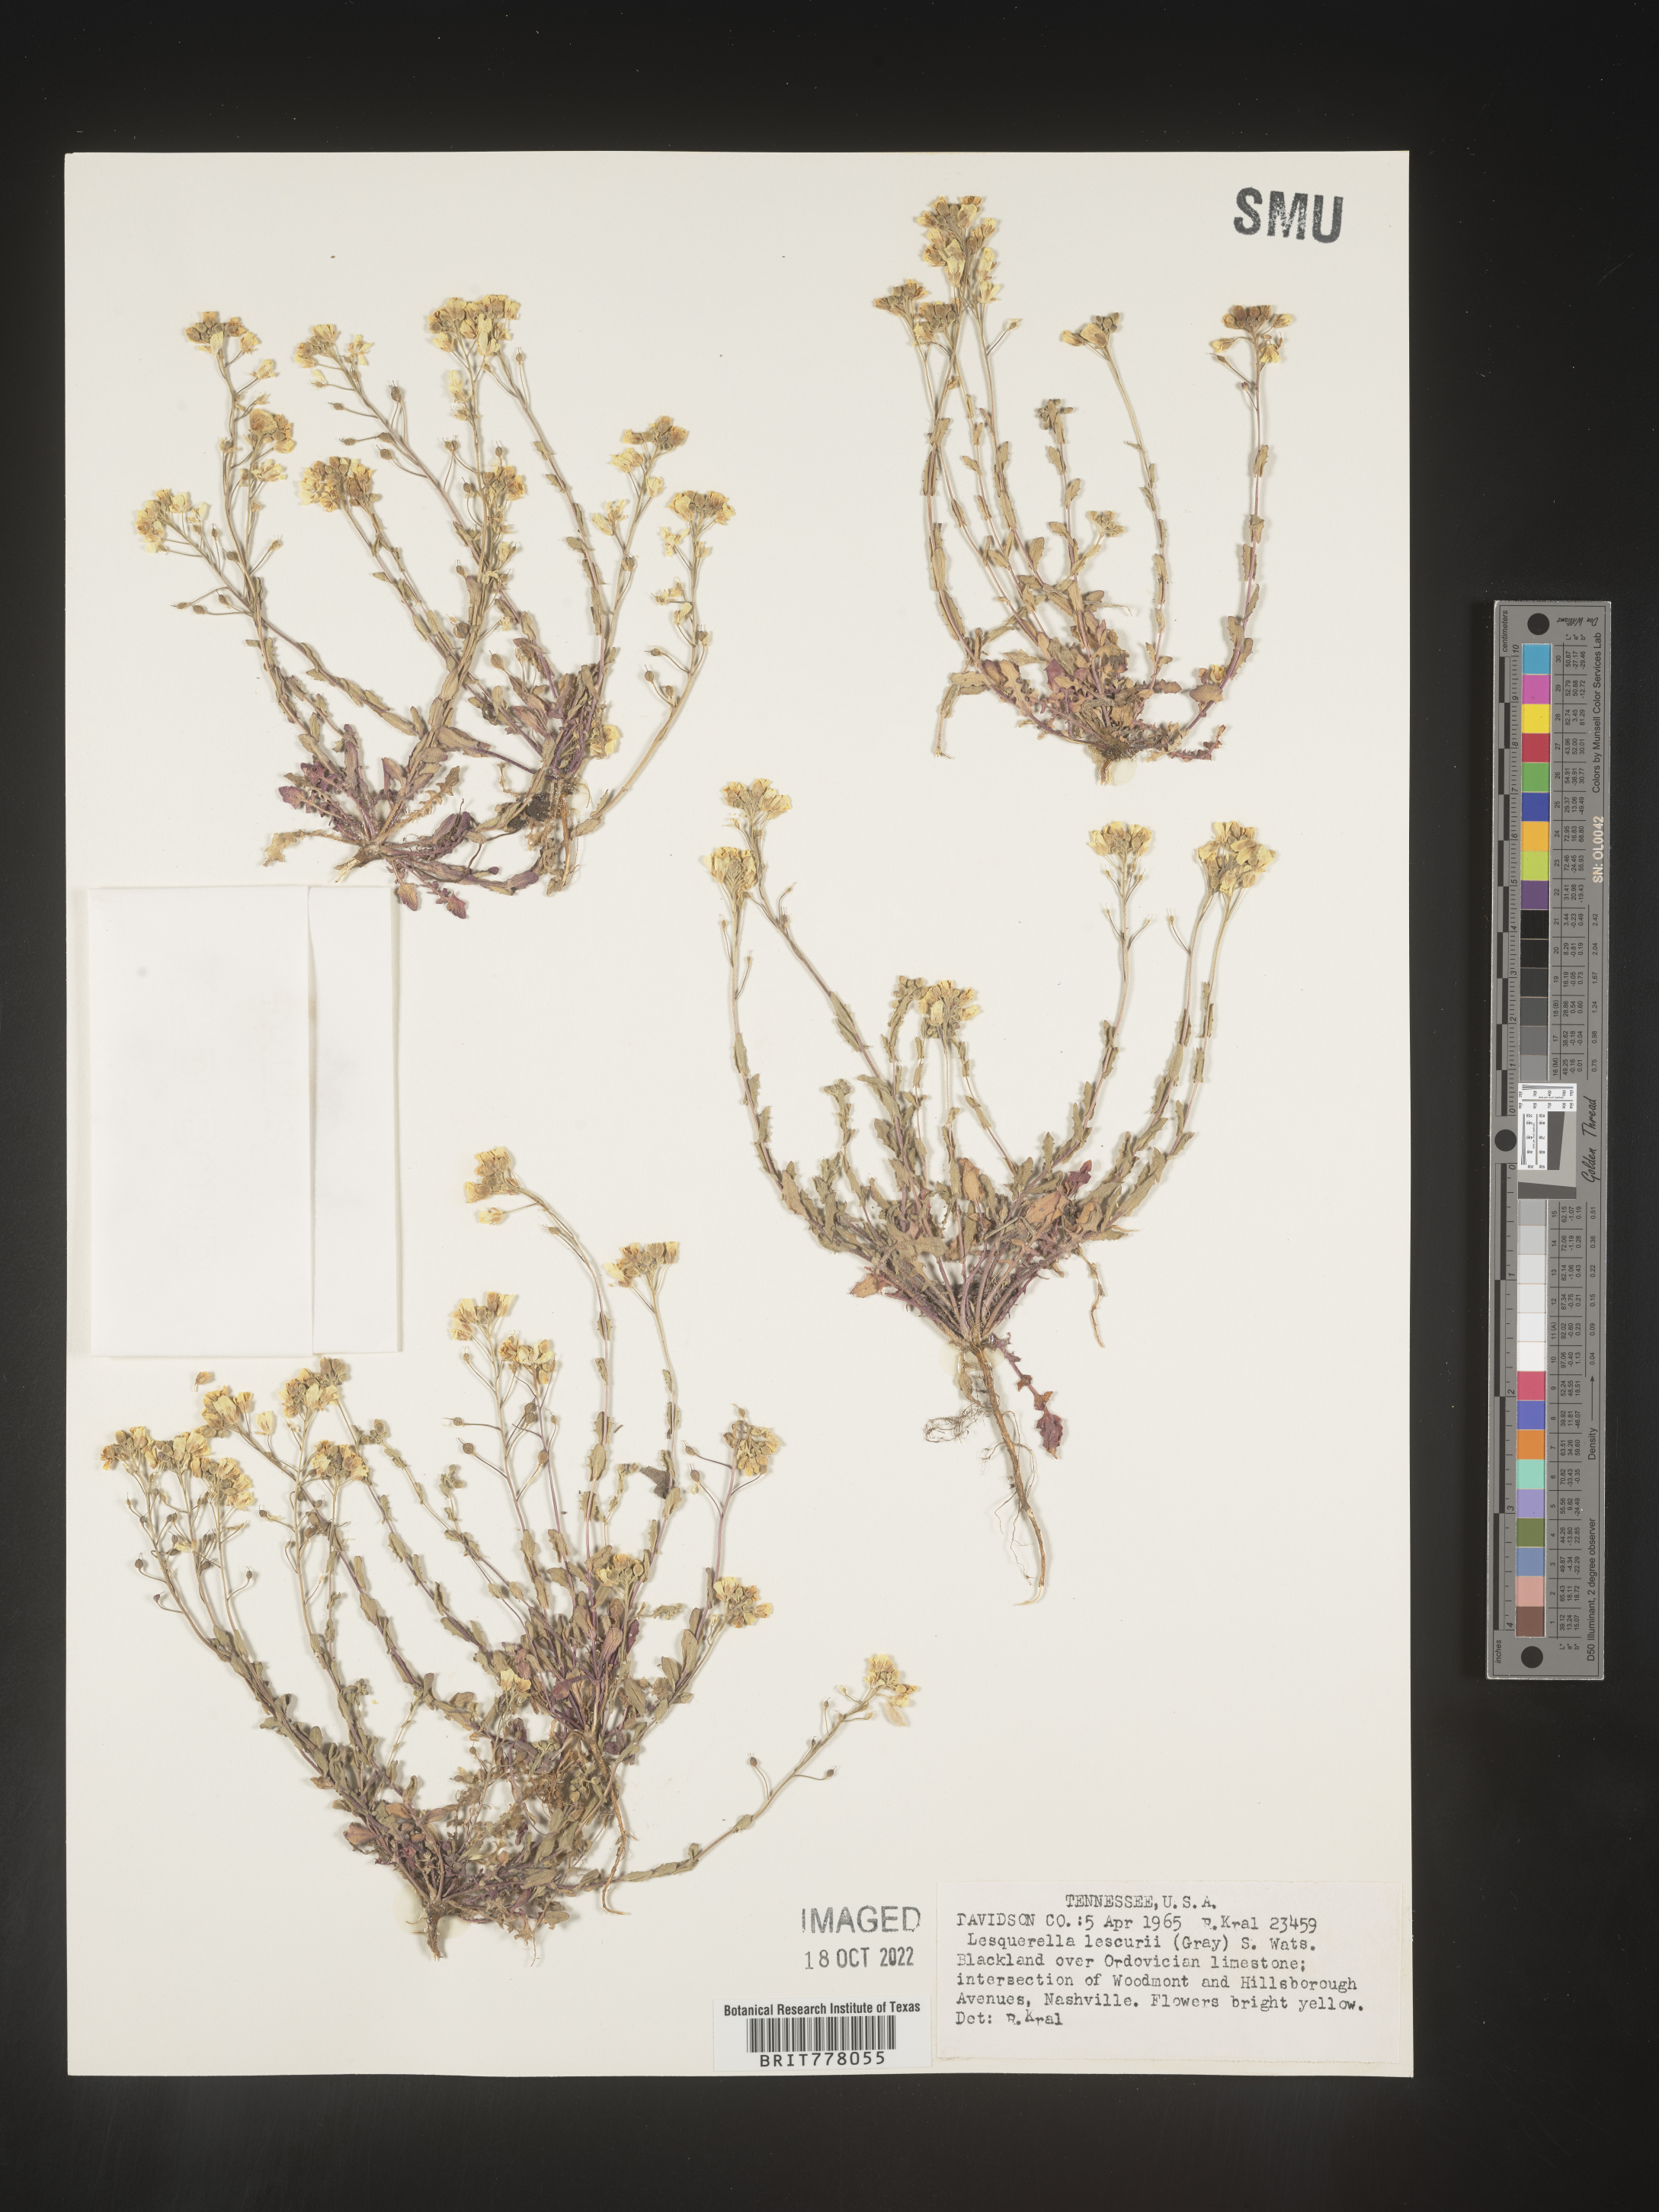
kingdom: Chromista
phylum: Cercozoa
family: Psammonobiotidae
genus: Lesquerella
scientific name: Lesquerella
